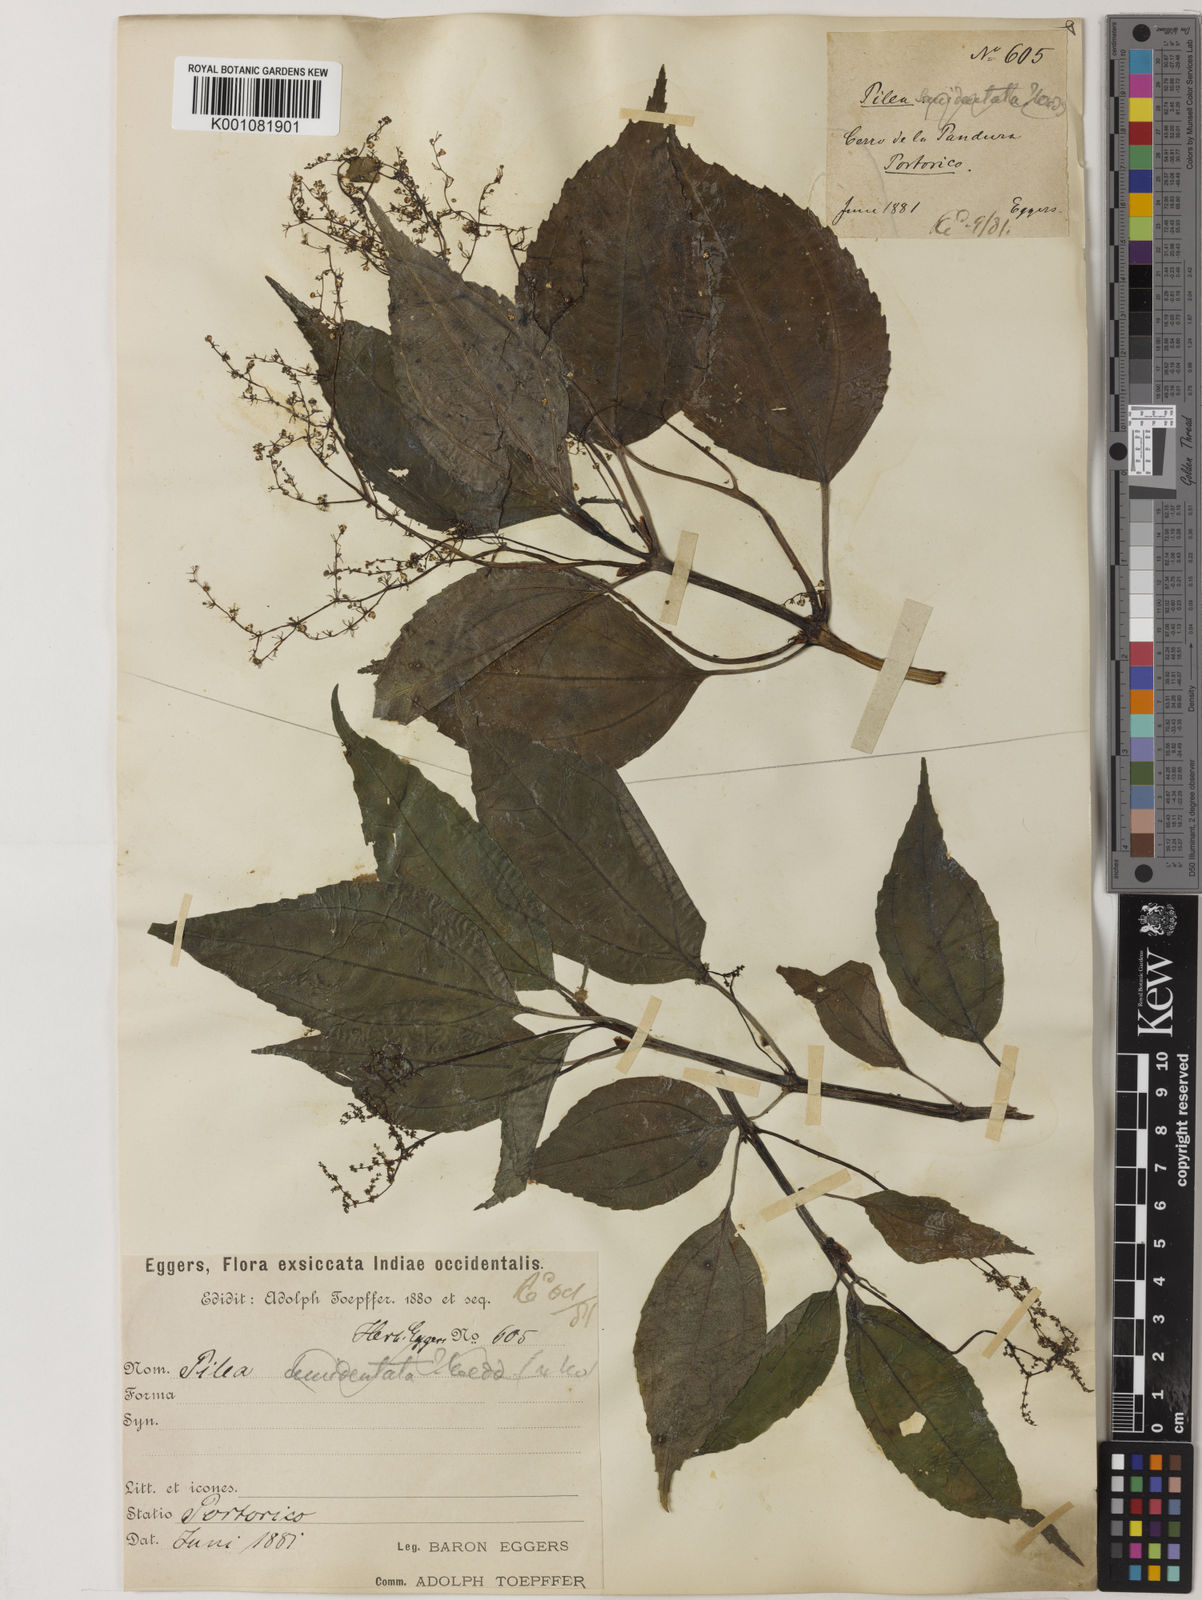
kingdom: Plantae
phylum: Tracheophyta
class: Magnoliopsida
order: Rosales
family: Urticaceae
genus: Pilea
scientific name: Pilea semidentata
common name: Cliffside clearweed
